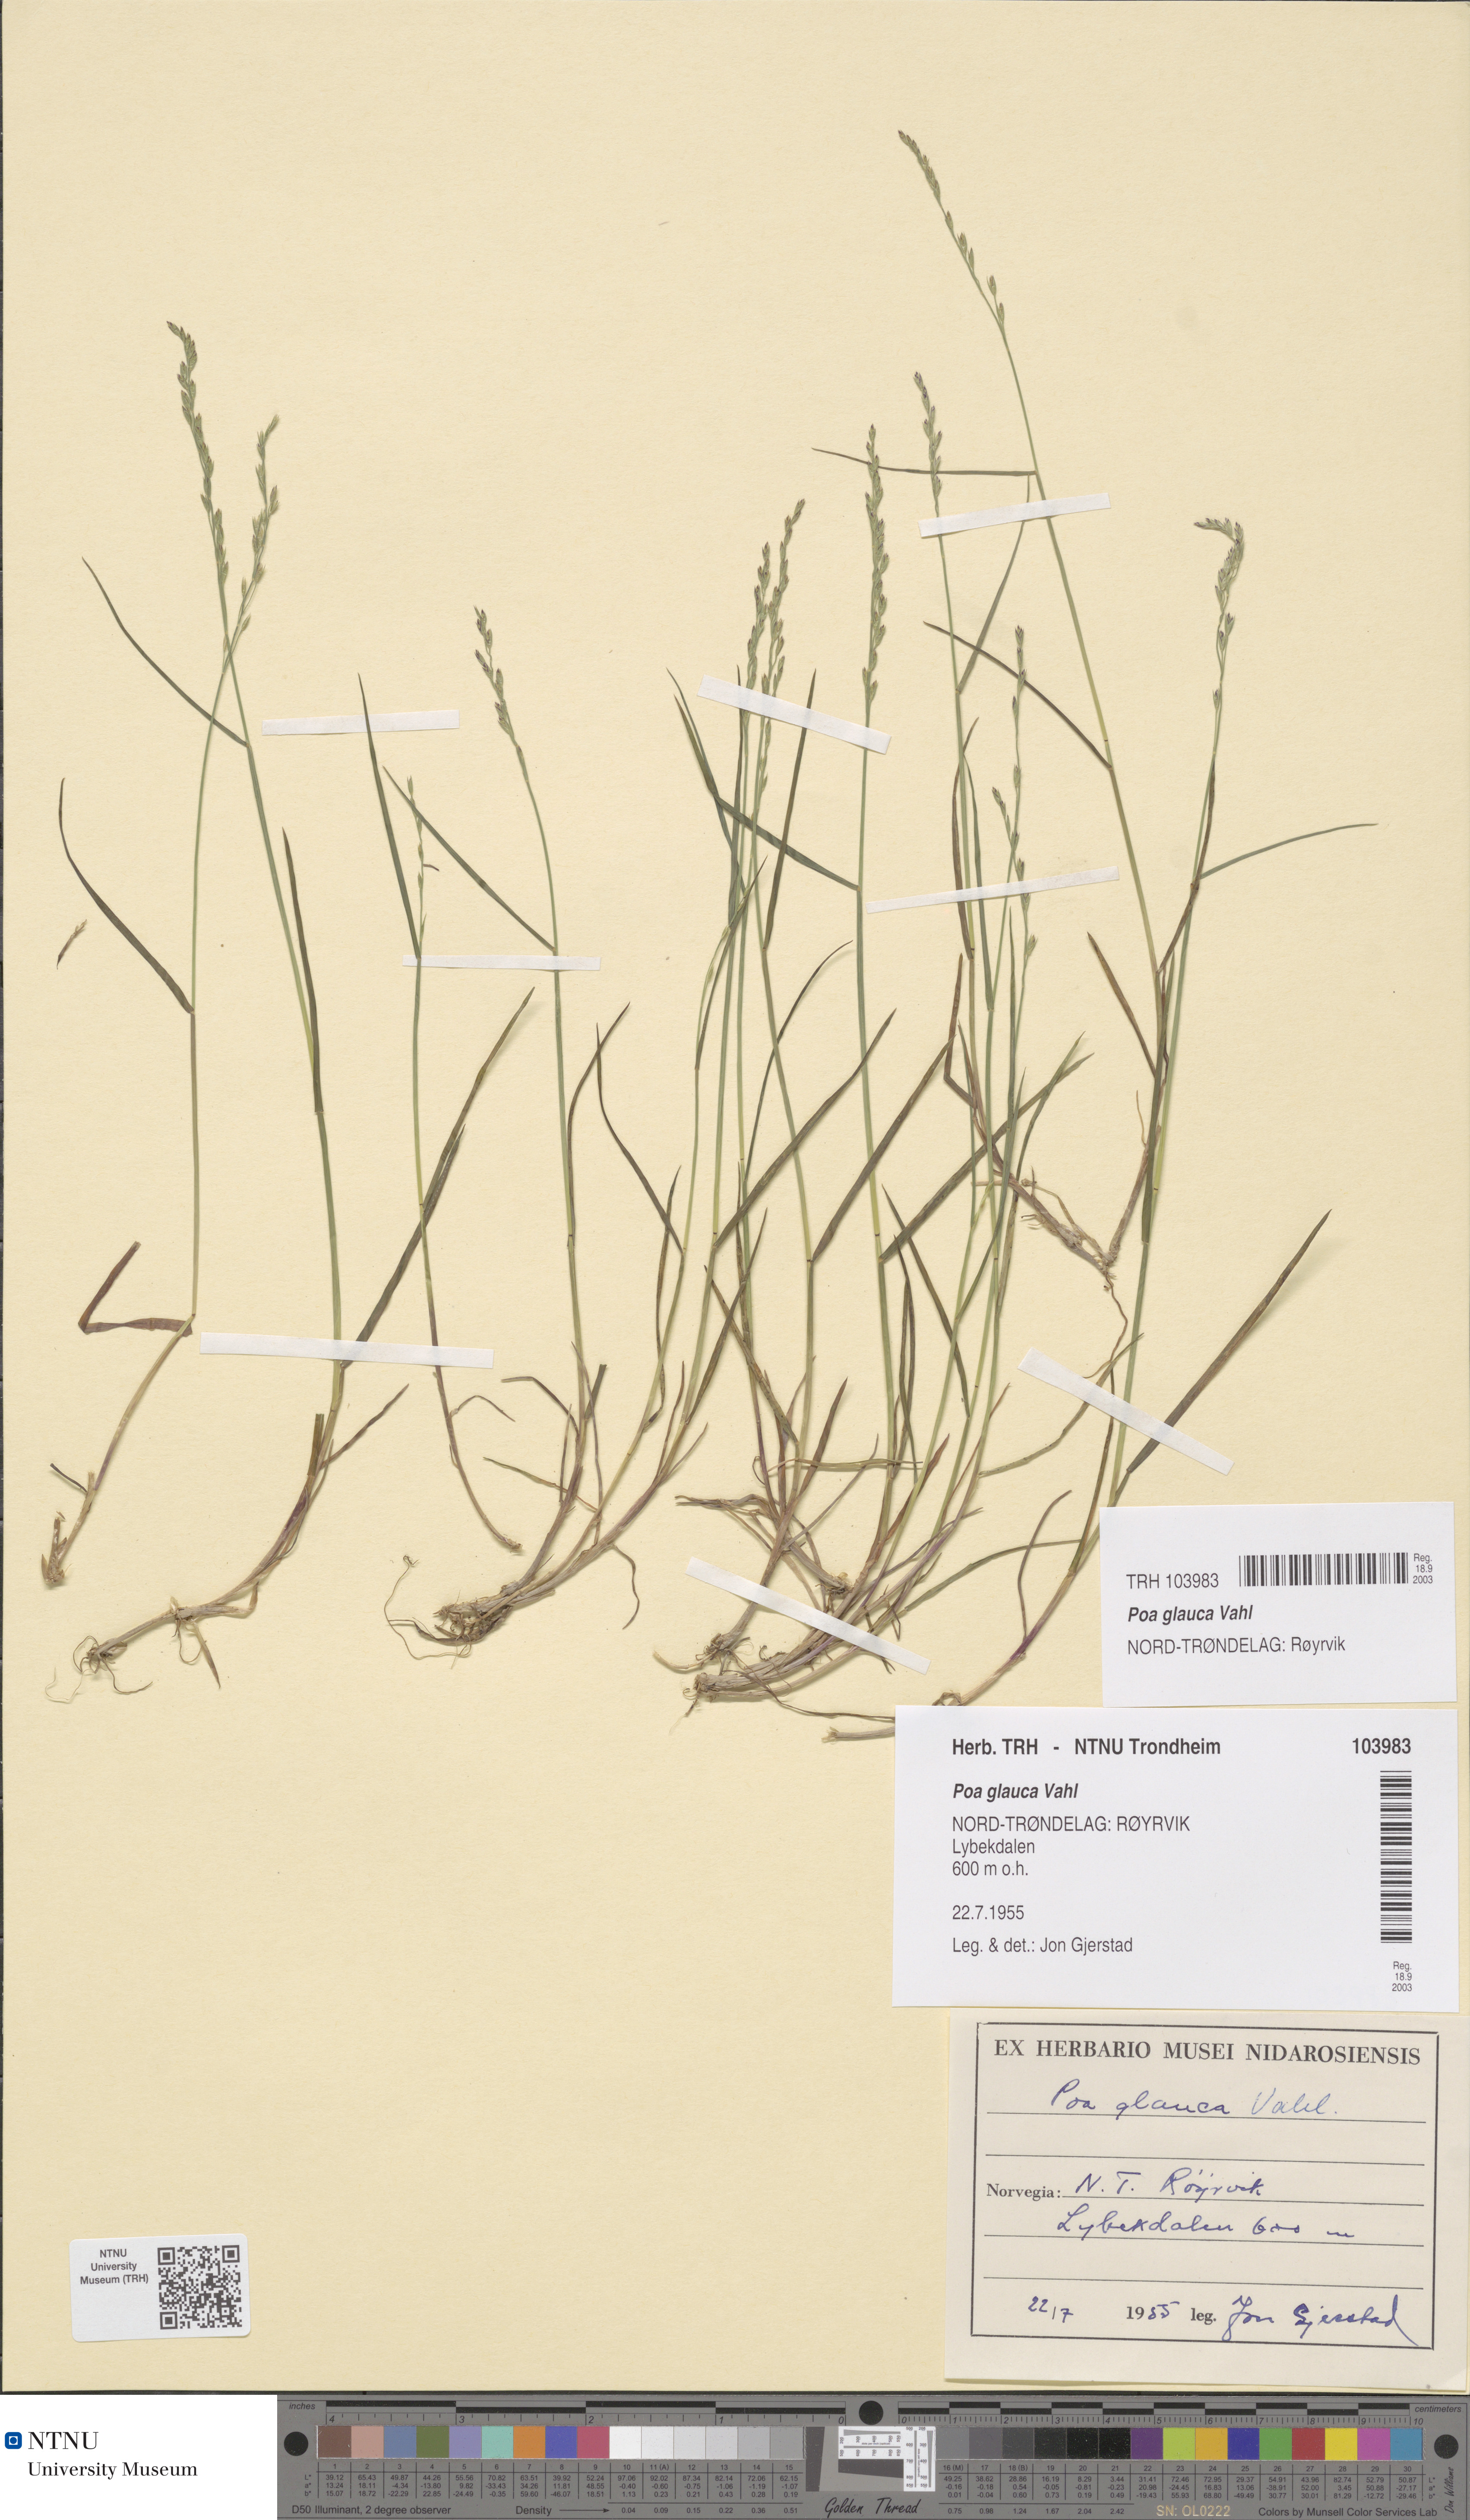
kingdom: Plantae
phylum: Tracheophyta
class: Liliopsida
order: Poales
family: Poaceae
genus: Poa
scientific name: Poa glauca
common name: Glaucous bluegrass
